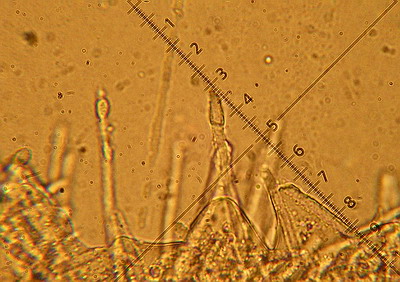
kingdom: Fungi
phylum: Ascomycota
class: Leotiomycetes
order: Helotiales
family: Lachnaceae
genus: Lachnum
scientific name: Lachnum tenuipilosum
